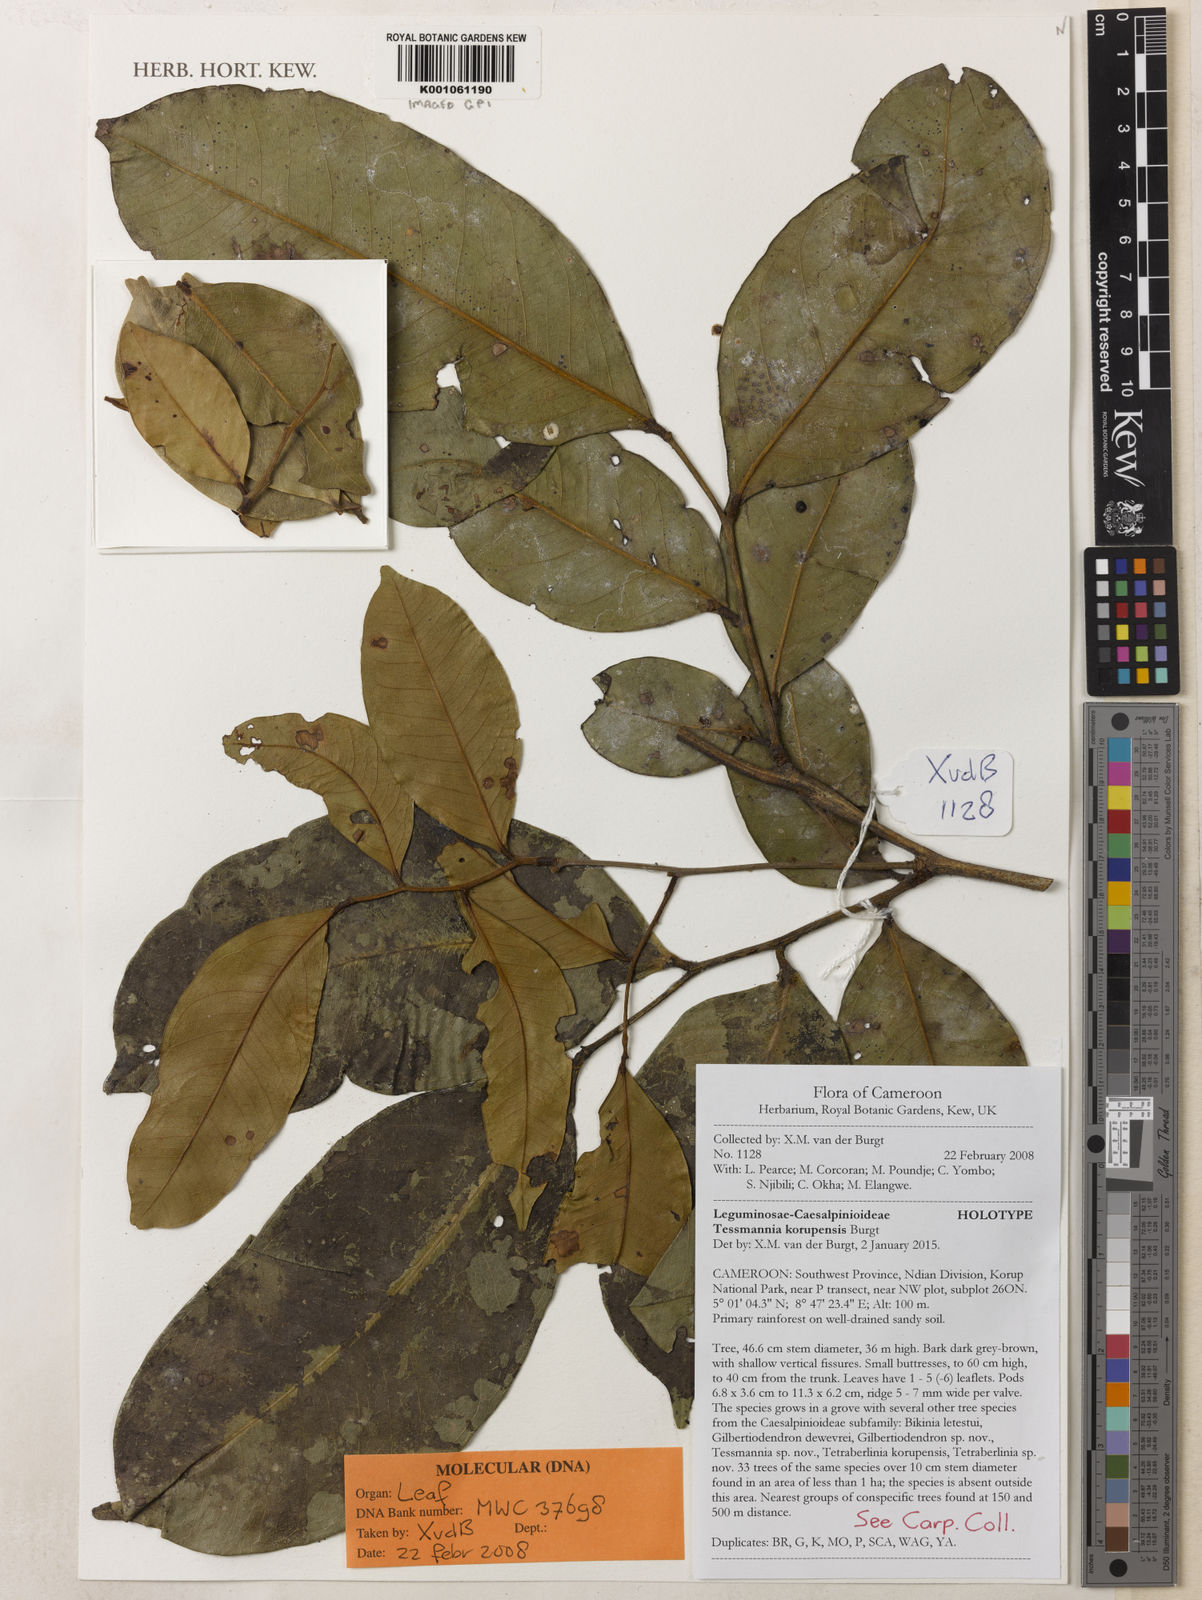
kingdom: Plantae
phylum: Tracheophyta
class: Magnoliopsida
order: Fabales
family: Fabaceae
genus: Tessmannia
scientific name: Tessmannia korupensis
